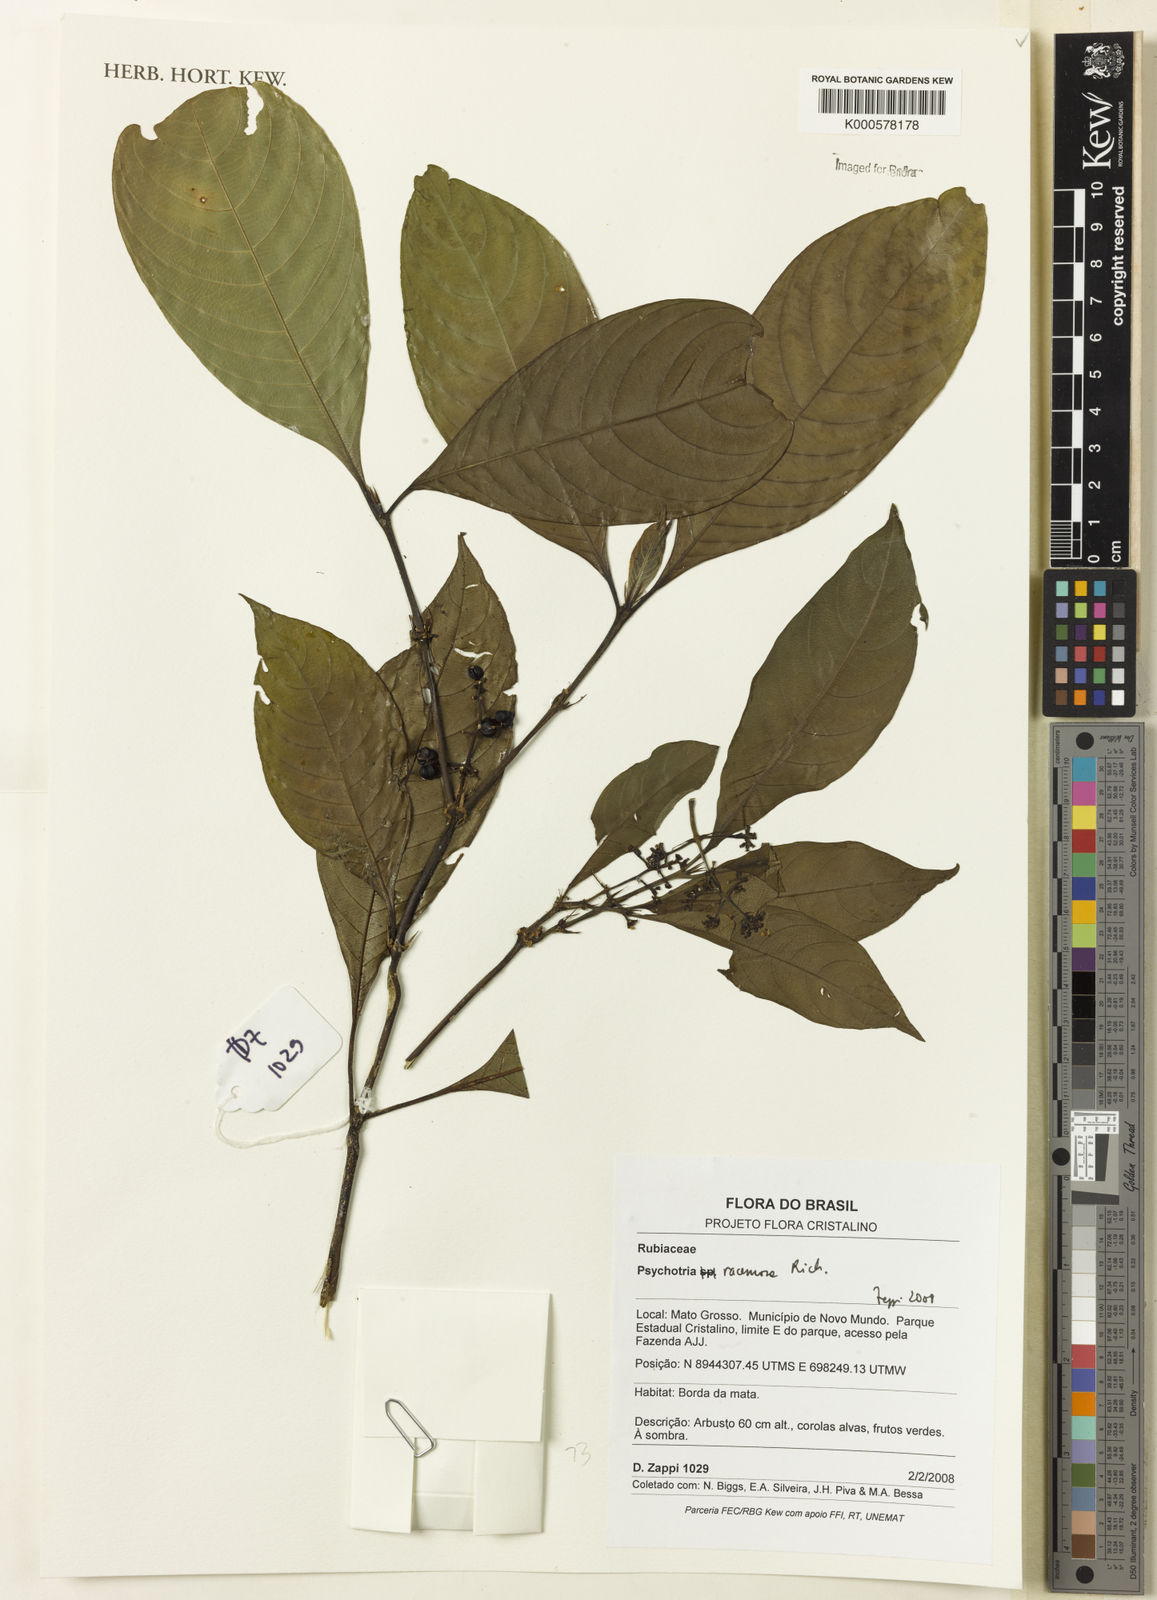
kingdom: Plantae
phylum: Tracheophyta
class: Magnoliopsida
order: Gentianales
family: Rubiaceae
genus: Palicourea
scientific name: Palicourea subfusca
